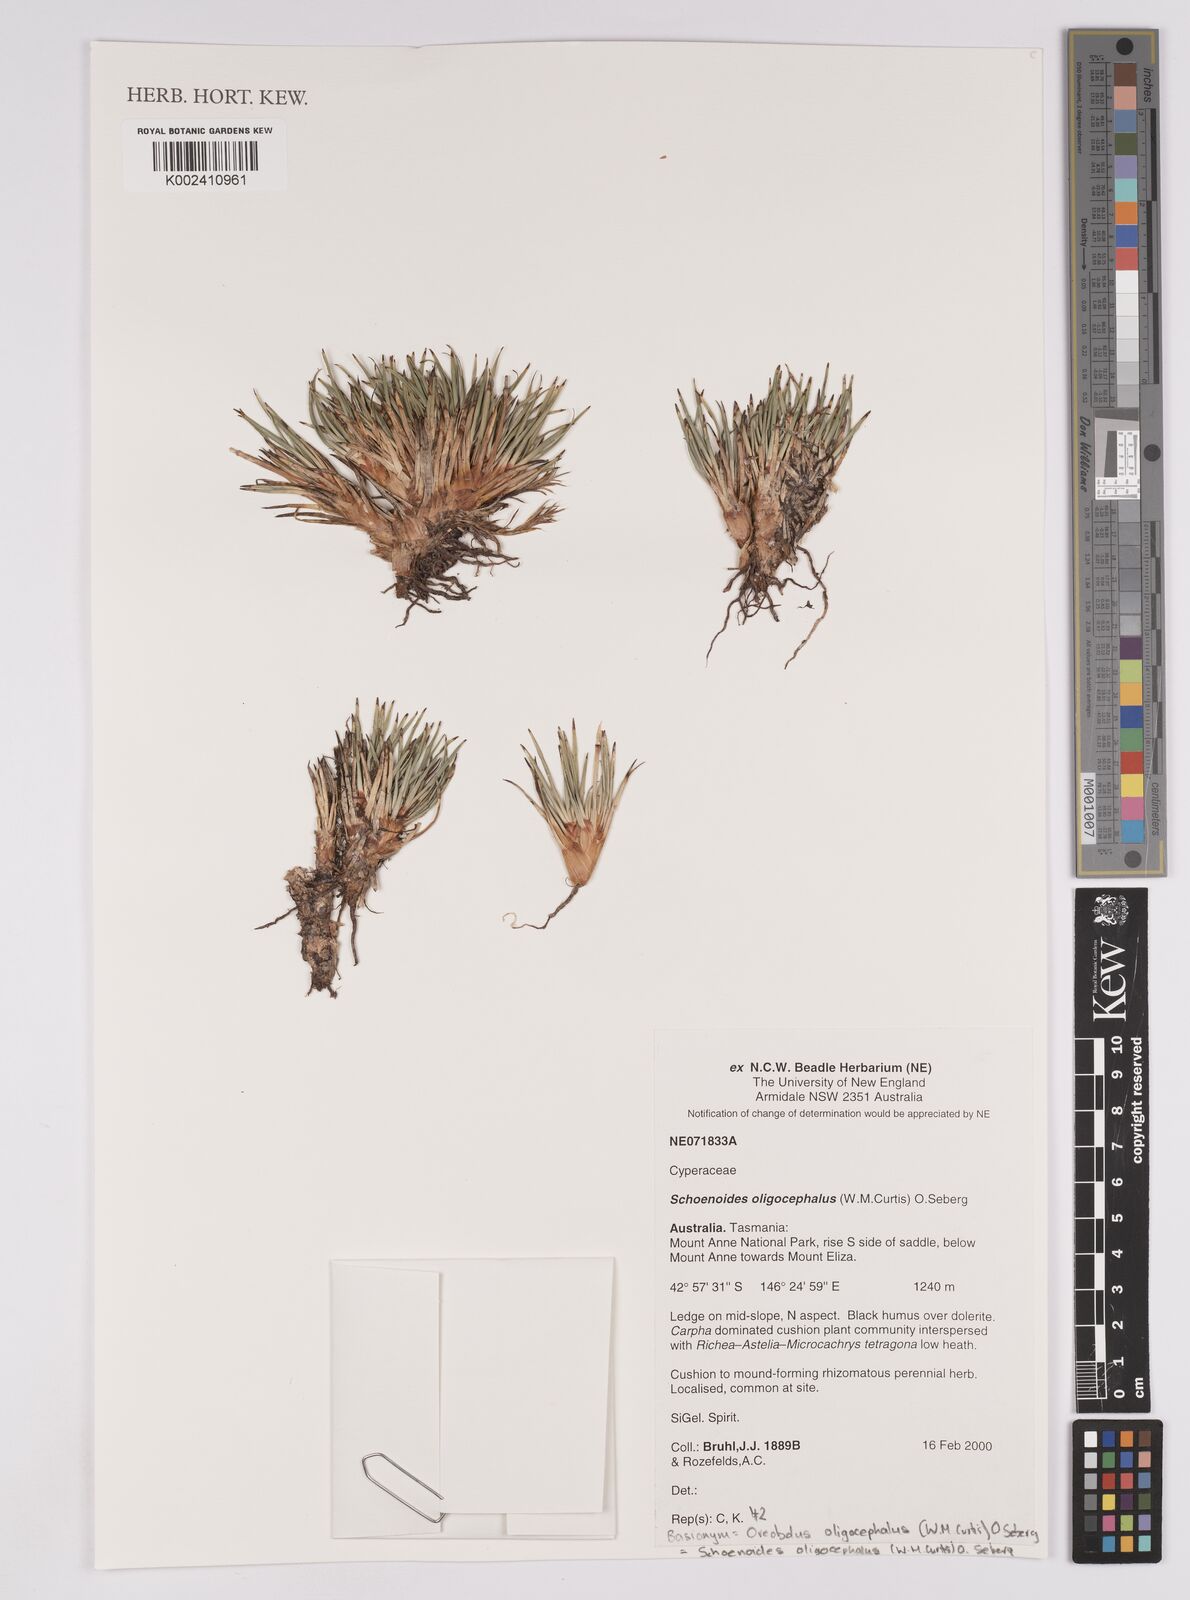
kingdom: Plantae
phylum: Tracheophyta
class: Liliopsida
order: Poales
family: Cyperaceae
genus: Oreobolus
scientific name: Oreobolus oligocephalus
